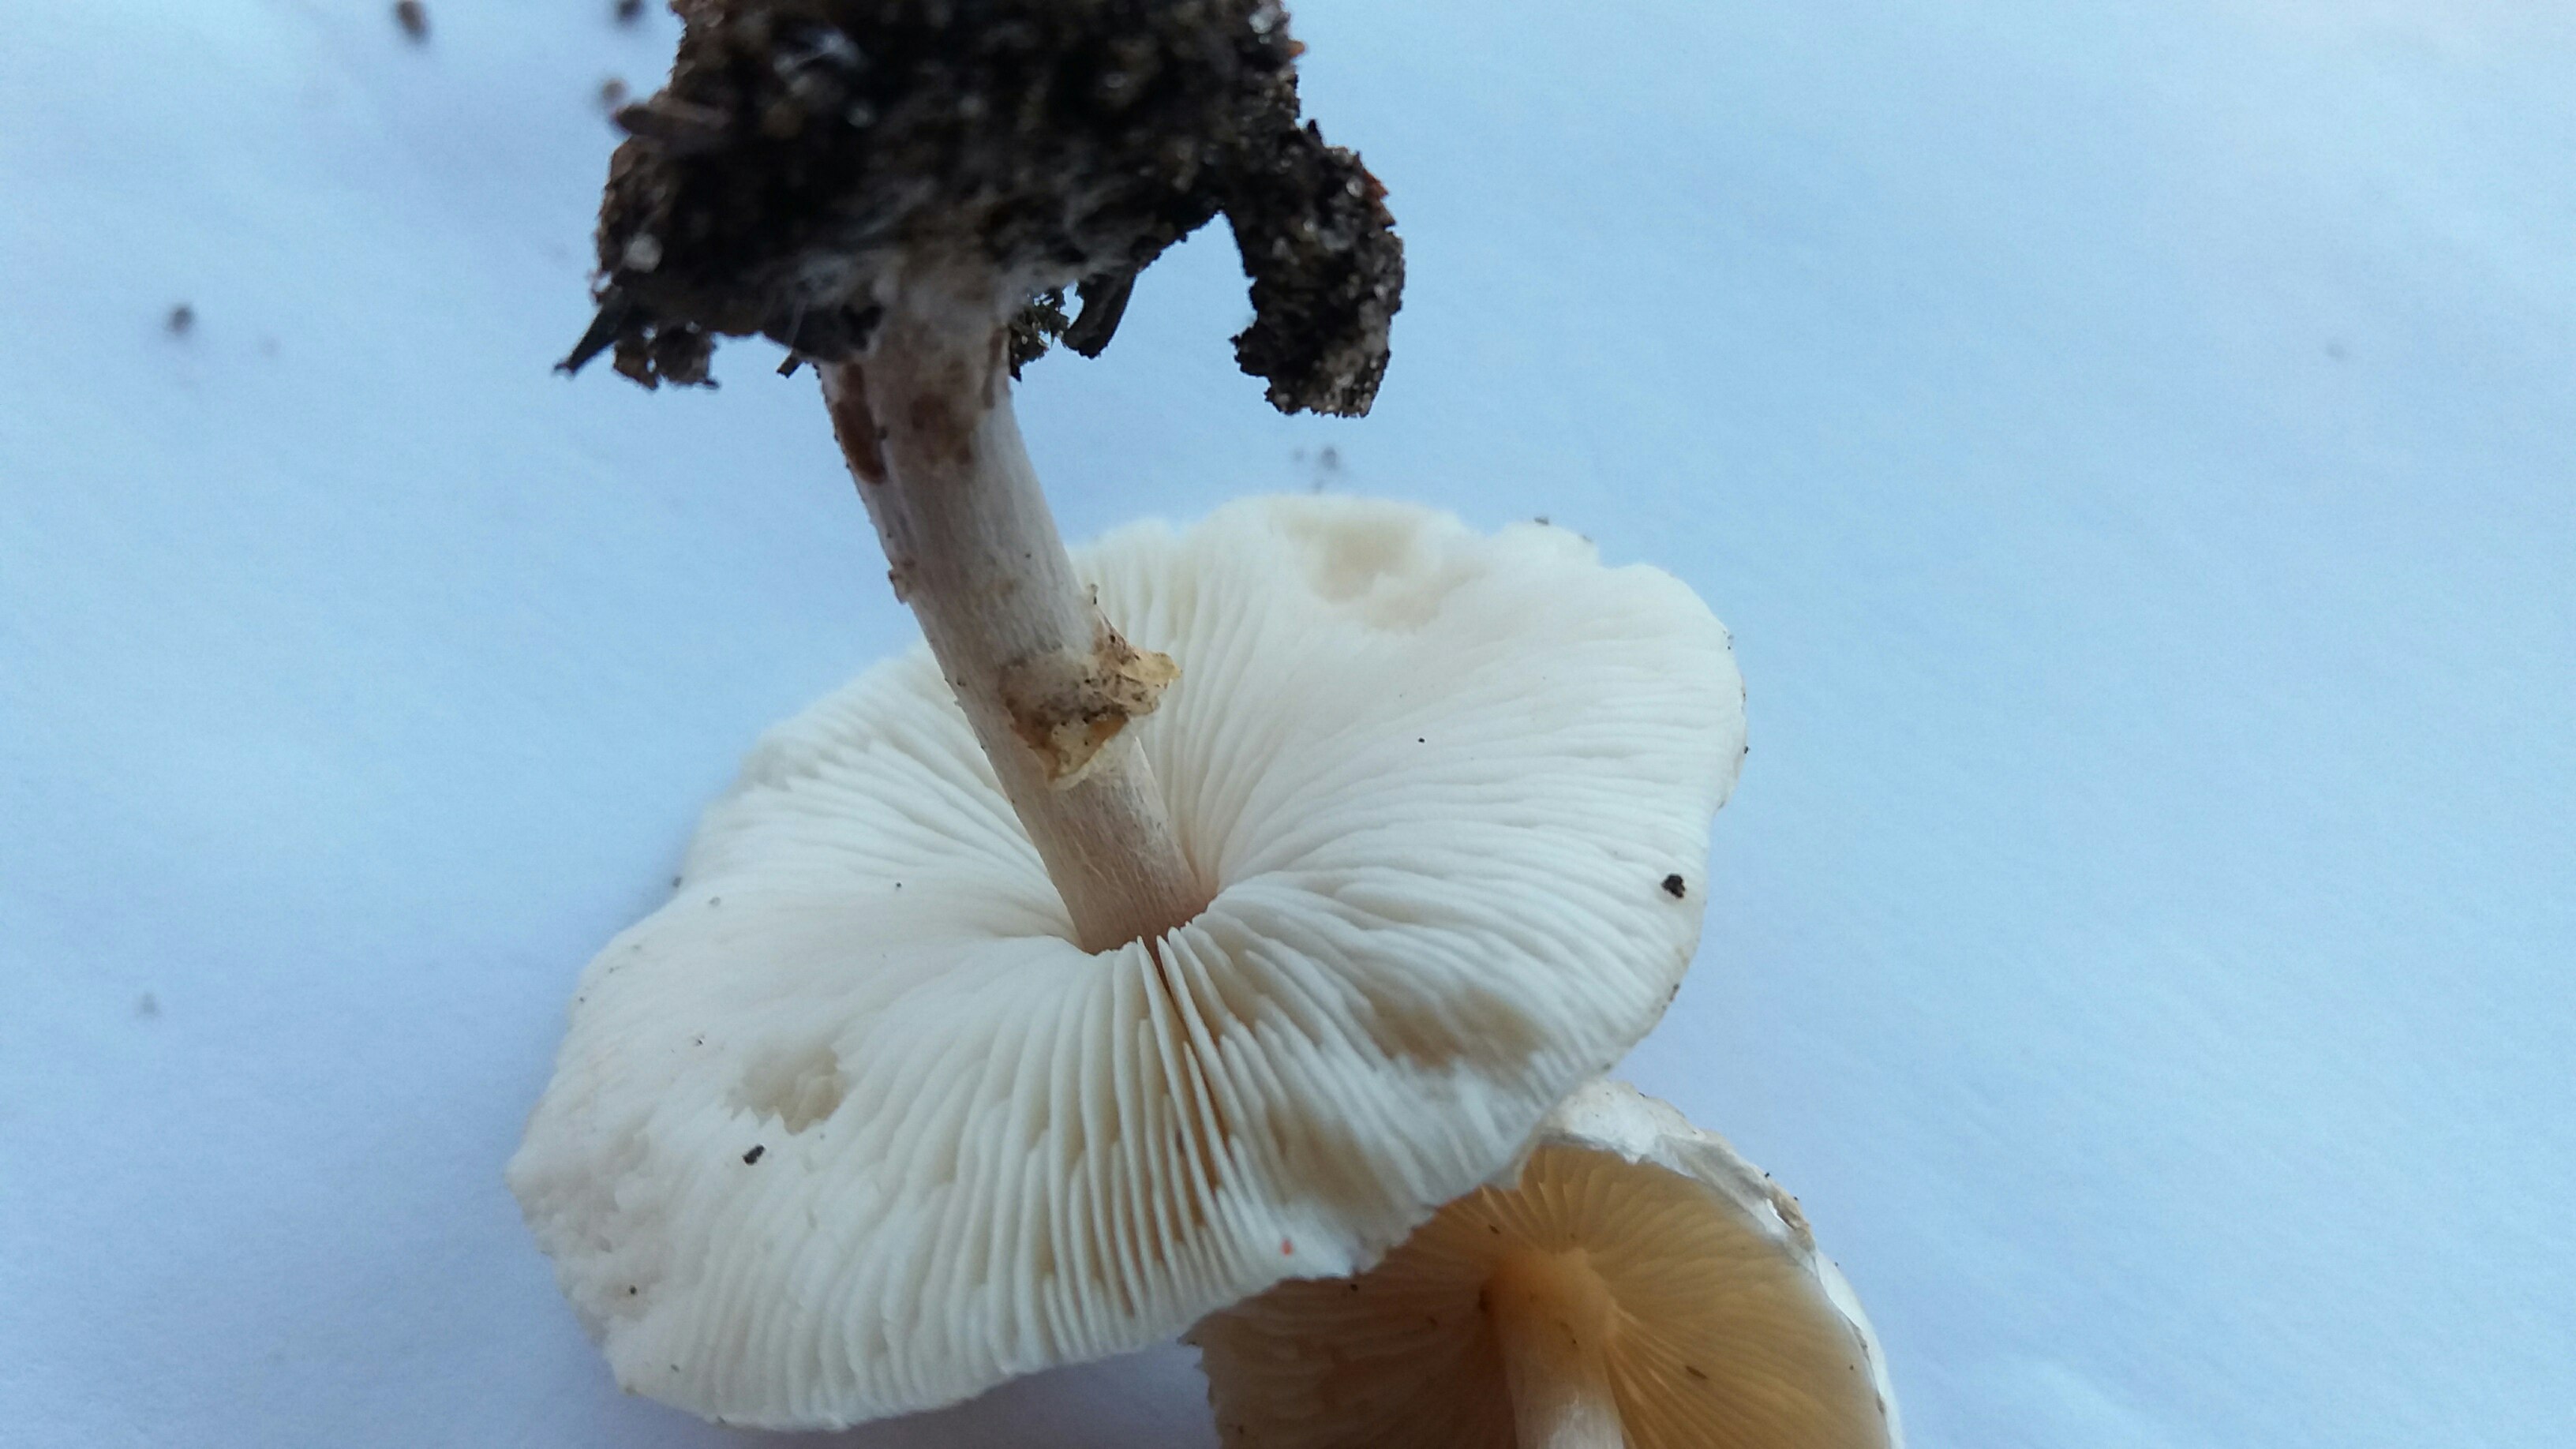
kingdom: Fungi
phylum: Basidiomycota
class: Agaricomycetes
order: Agaricales
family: Agaricaceae
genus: Lepiota
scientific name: Lepiota cristata
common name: stinkende parasolhat
